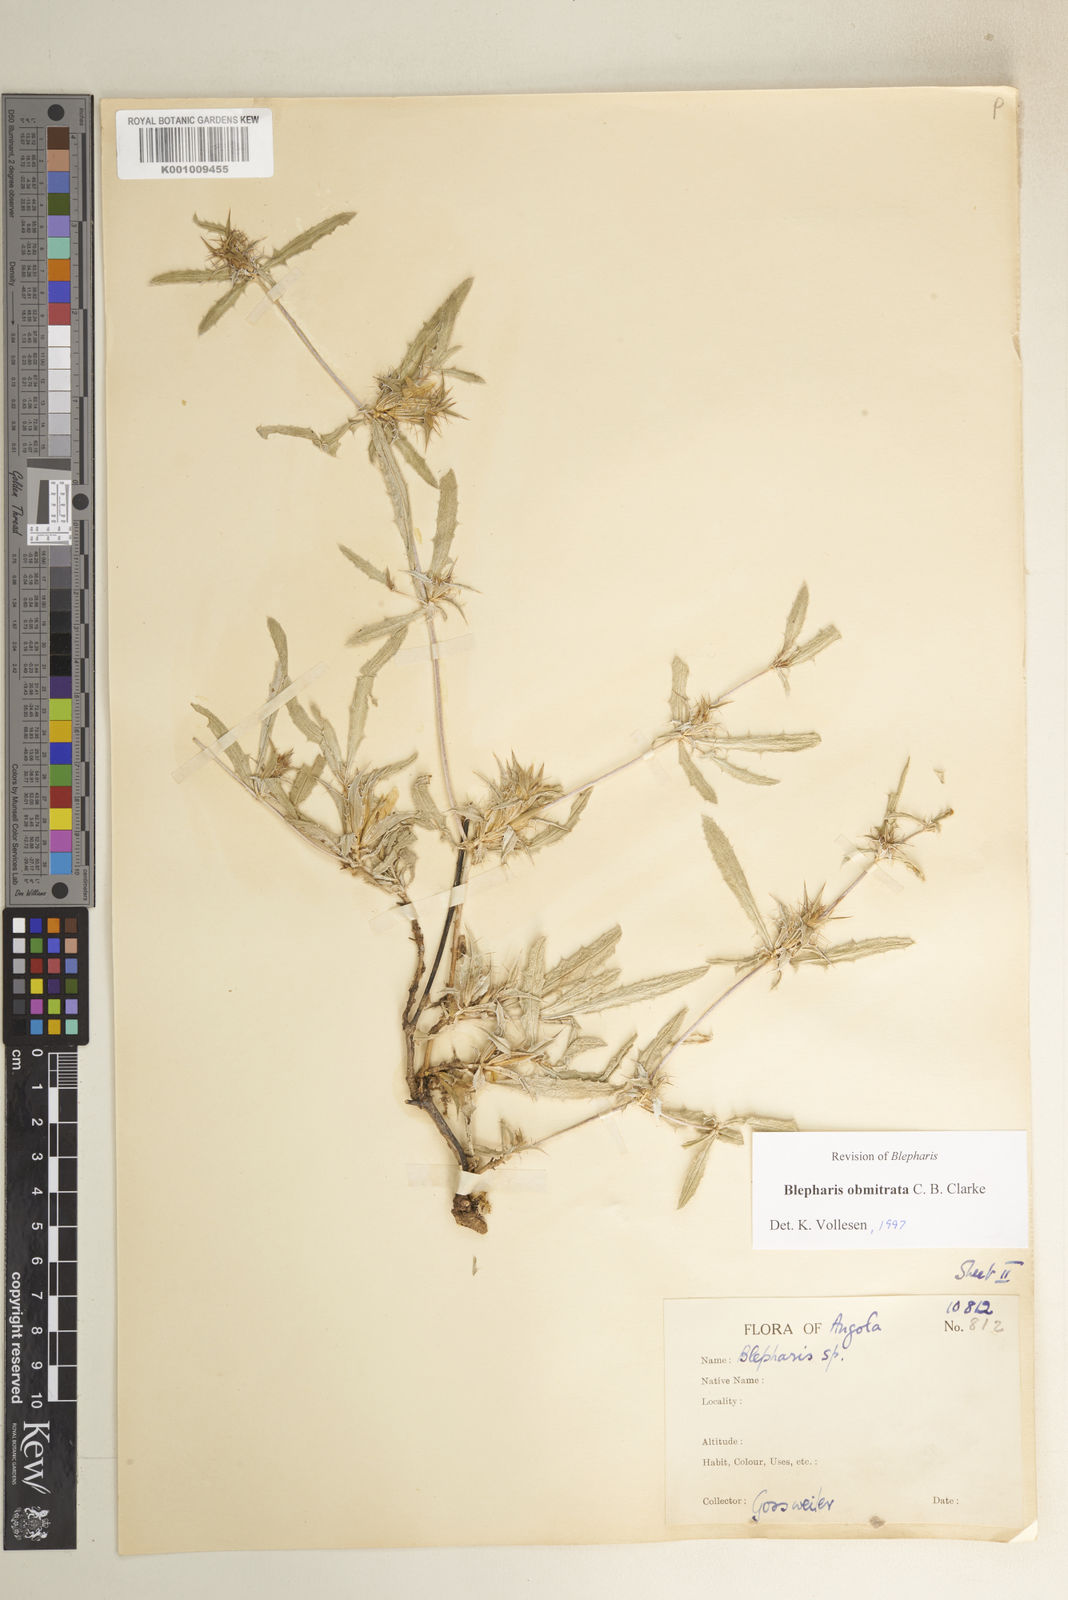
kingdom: Plantae
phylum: Tracheophyta
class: Magnoliopsida
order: Lamiales
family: Acanthaceae
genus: Blepharis
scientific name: Blepharis obmitrata
